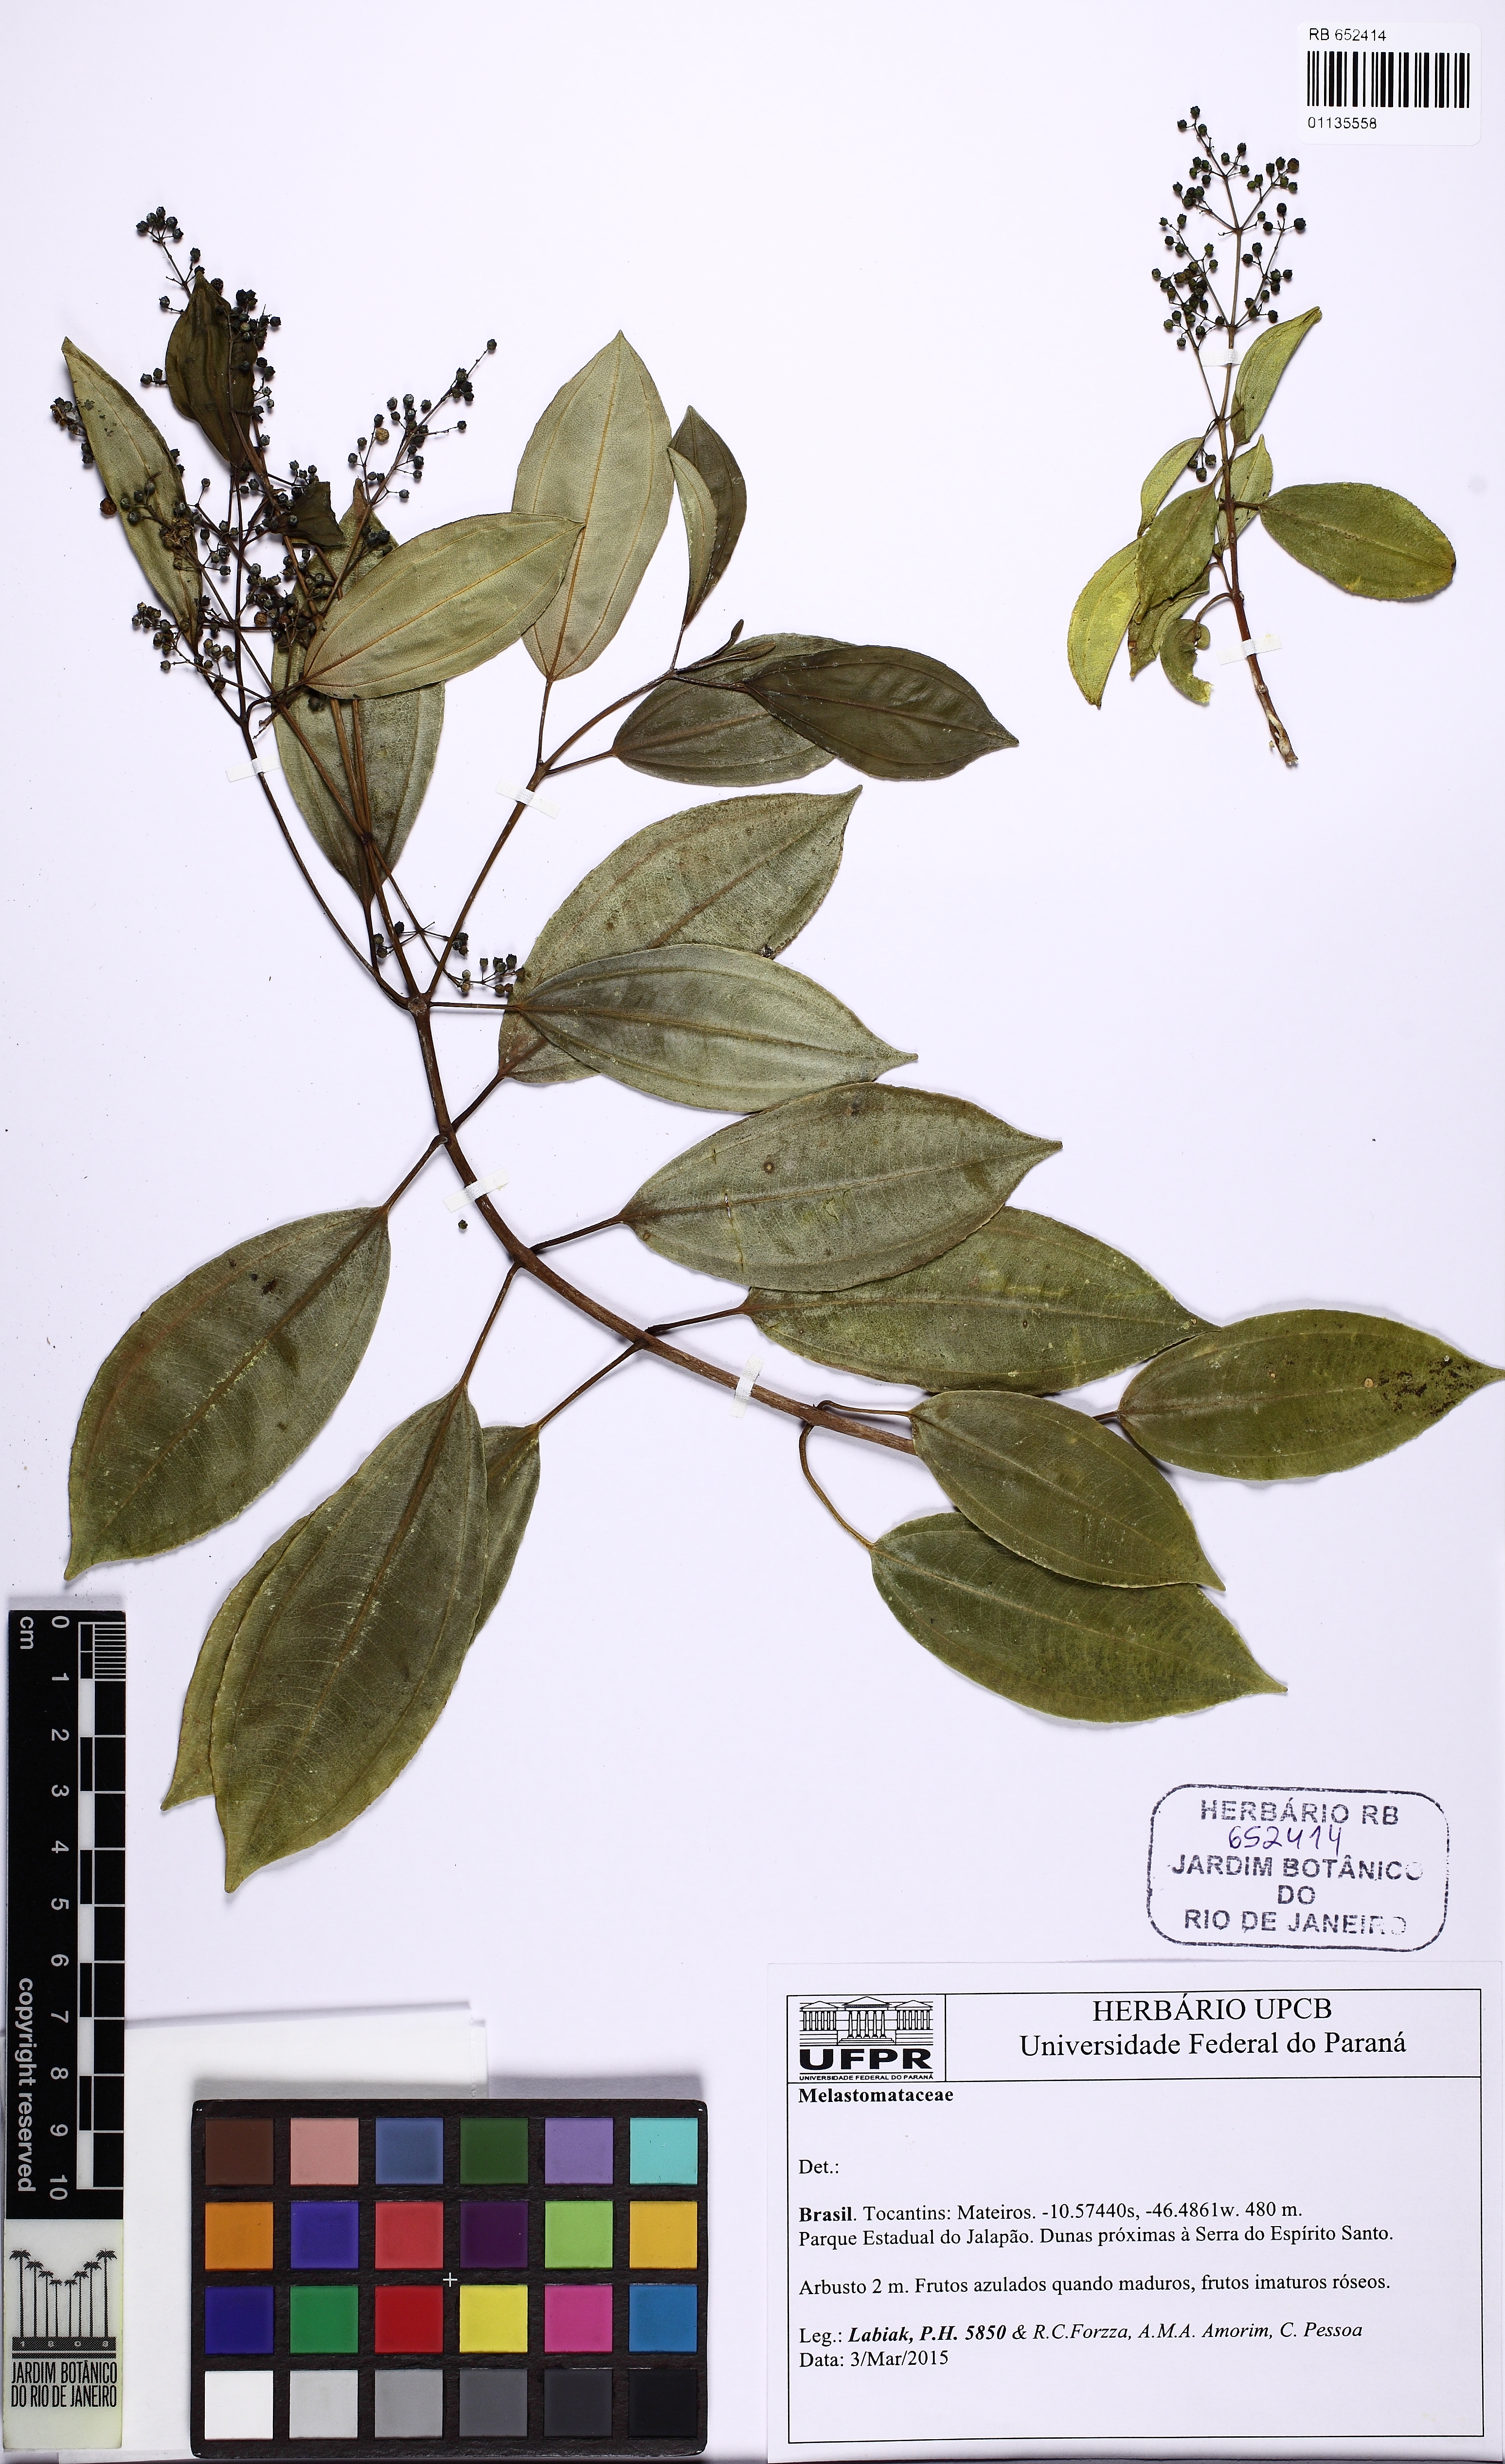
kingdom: Plantae
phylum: Tracheophyta
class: Magnoliopsida
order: Myrtales
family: Melastomataceae
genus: Miconia
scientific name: Miconia
